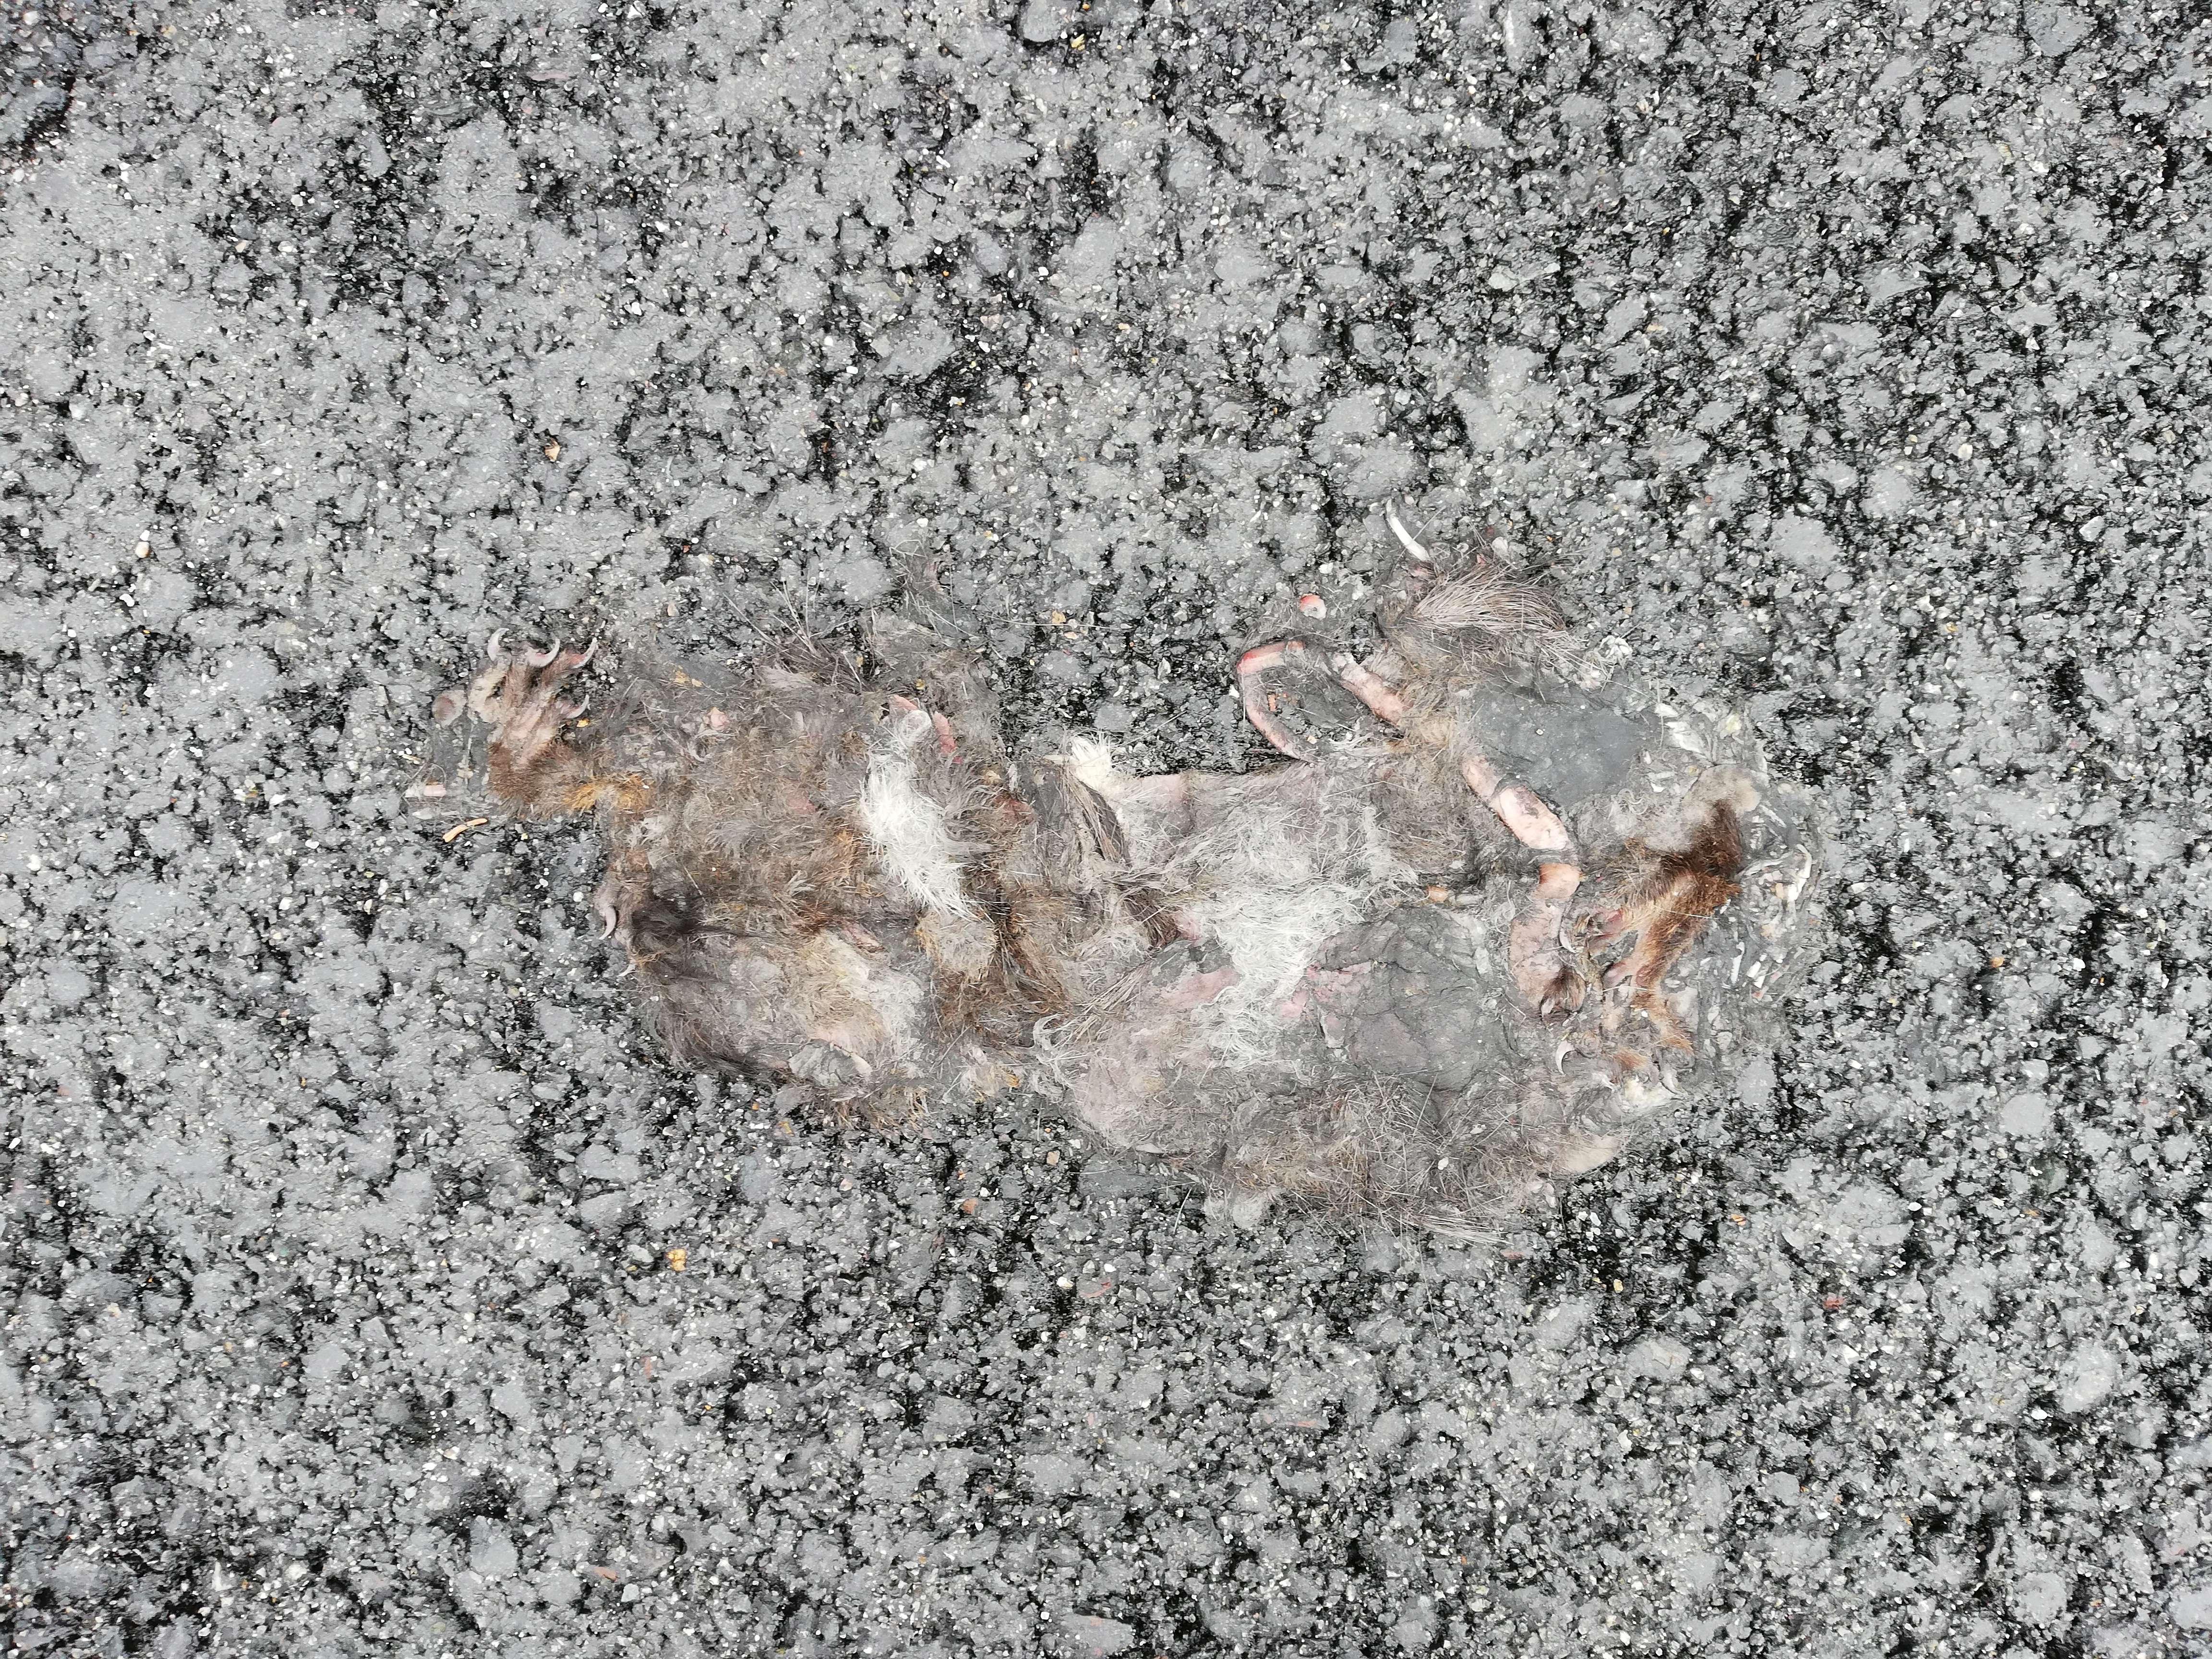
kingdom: Animalia
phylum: Chordata
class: Mammalia
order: Rodentia
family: Sciuridae
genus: Sciurus
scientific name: Sciurus vulgaris
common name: Eurasian red squirrel
